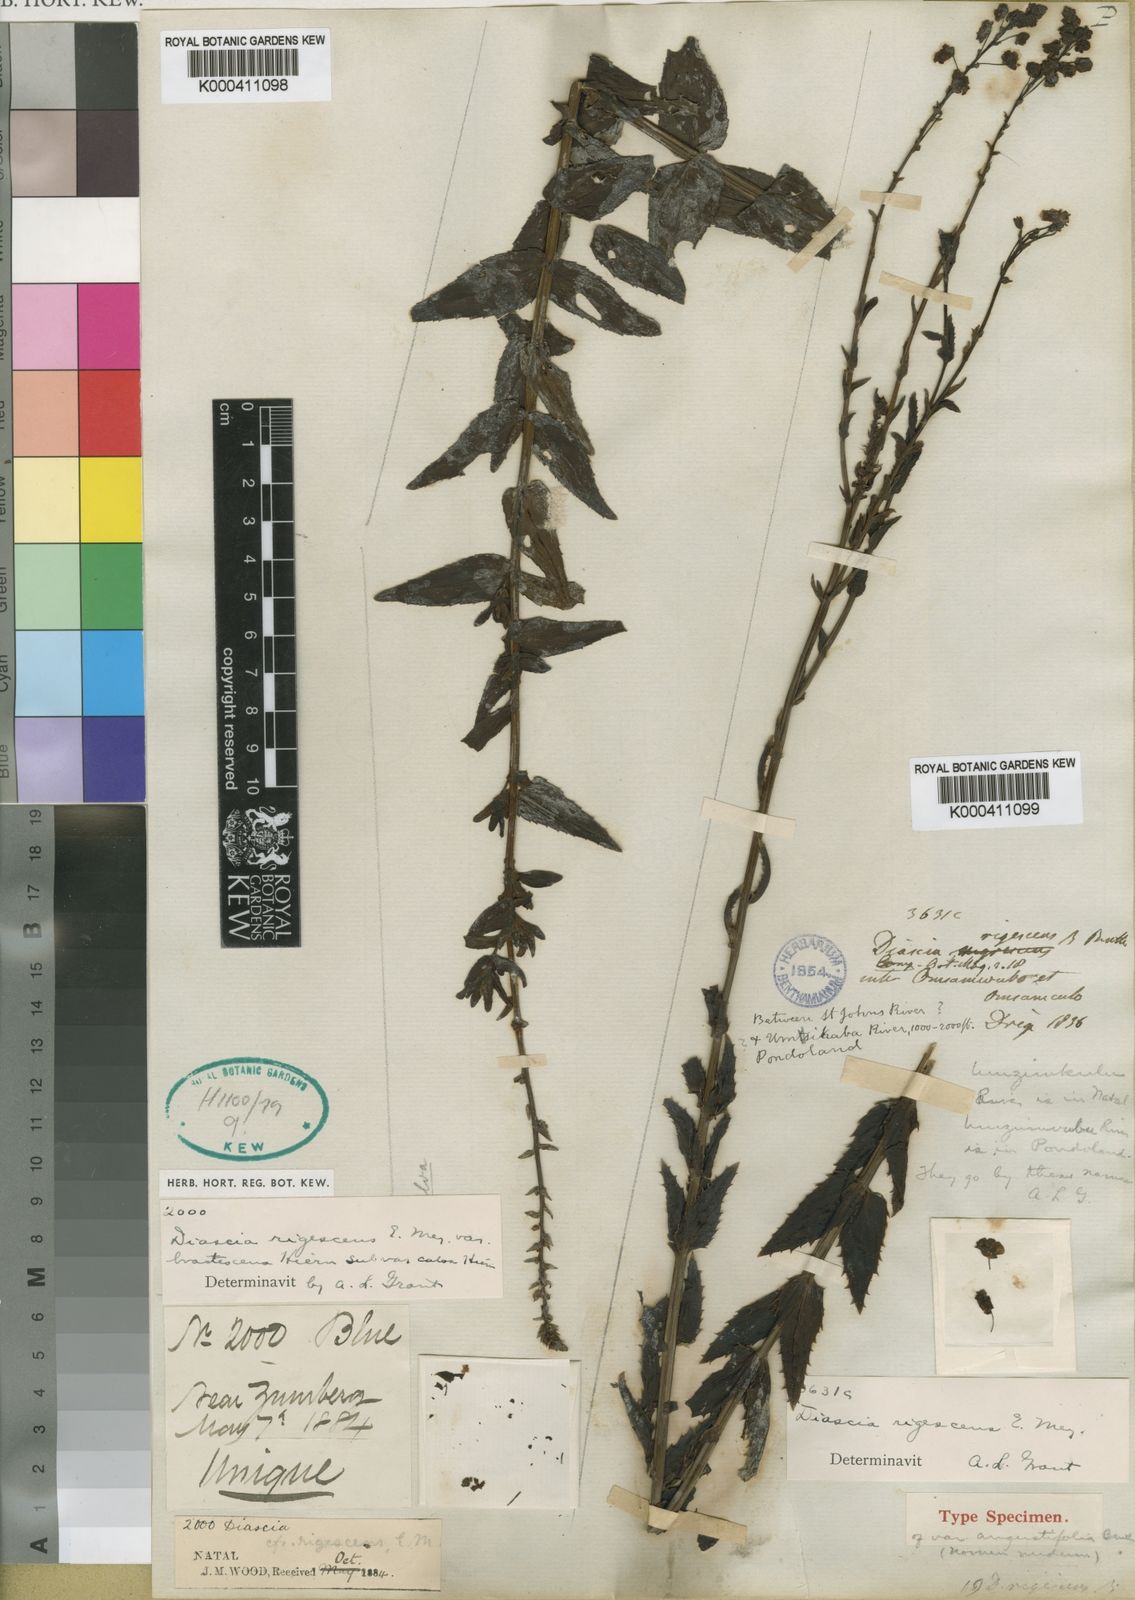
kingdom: Plantae
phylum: Tracheophyta
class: Magnoliopsida
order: Lamiales
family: Scrophulariaceae
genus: Diascia
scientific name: Diascia rigescens
